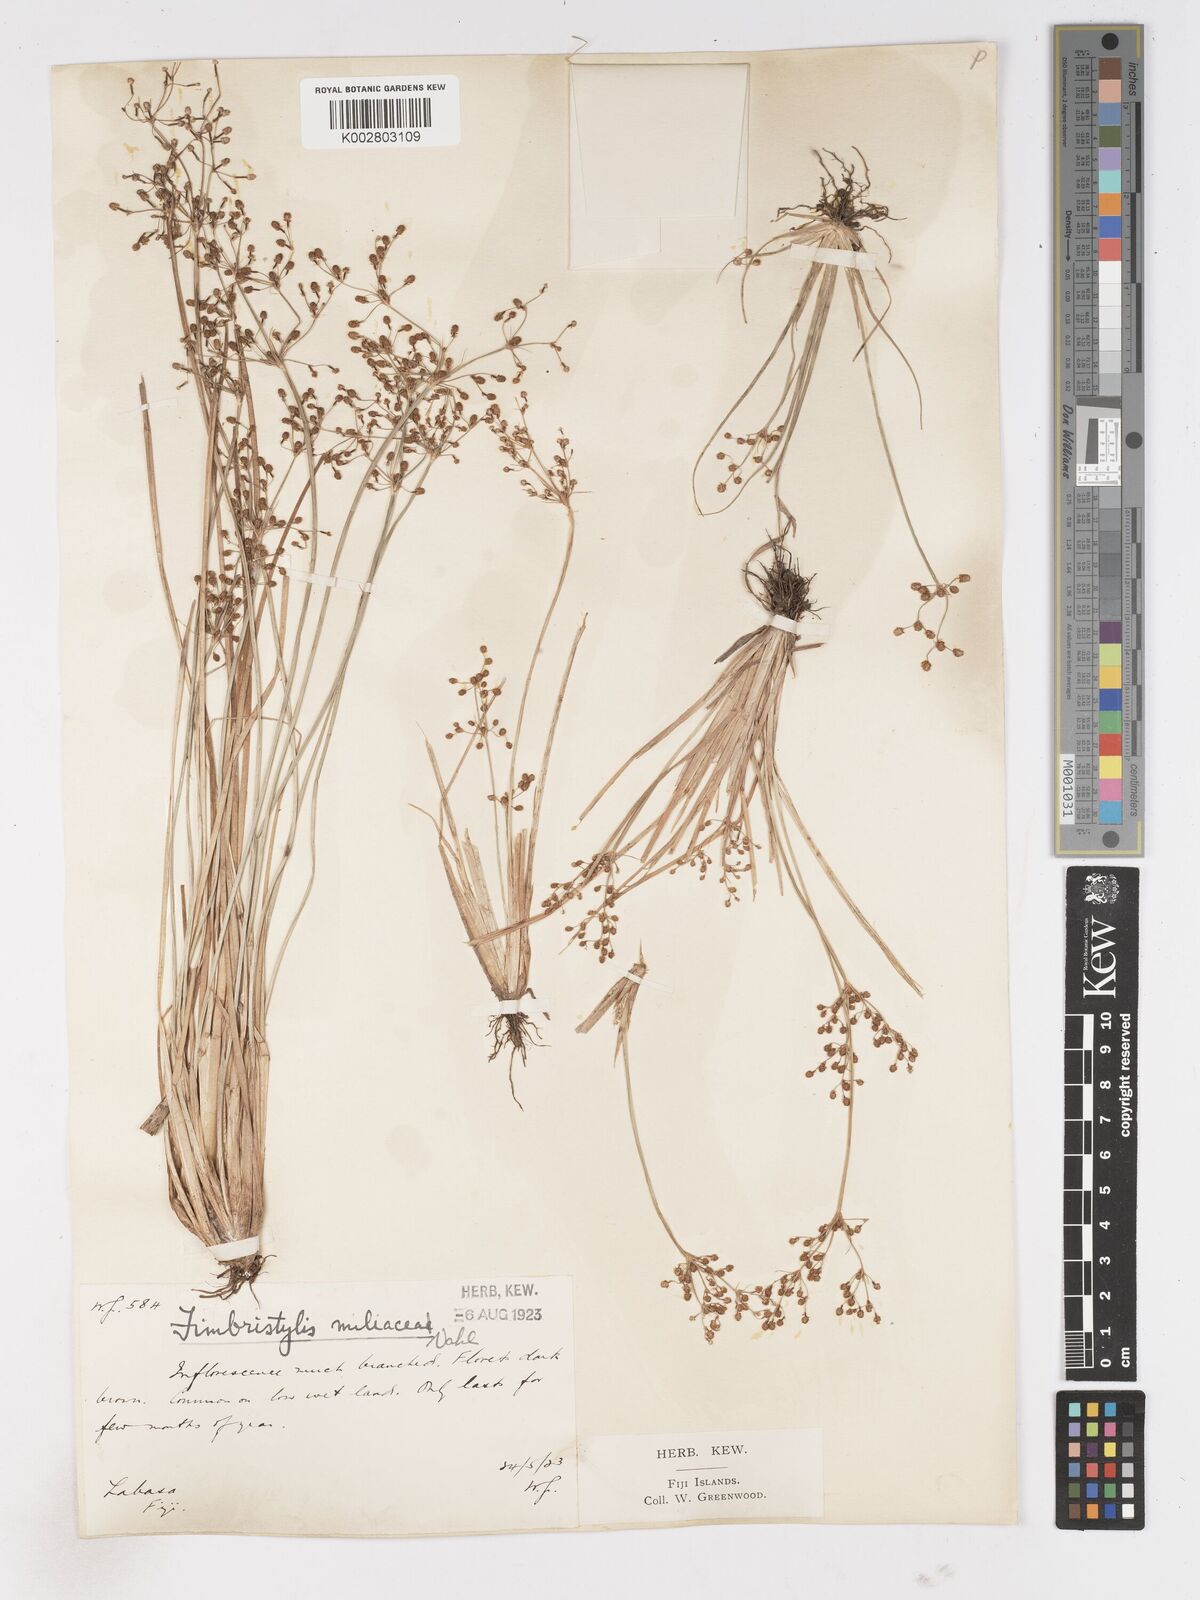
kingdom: Plantae
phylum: Tracheophyta
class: Liliopsida
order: Poales
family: Cyperaceae
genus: Fimbristylis
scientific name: Fimbristylis littoralis
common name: Fimbry
